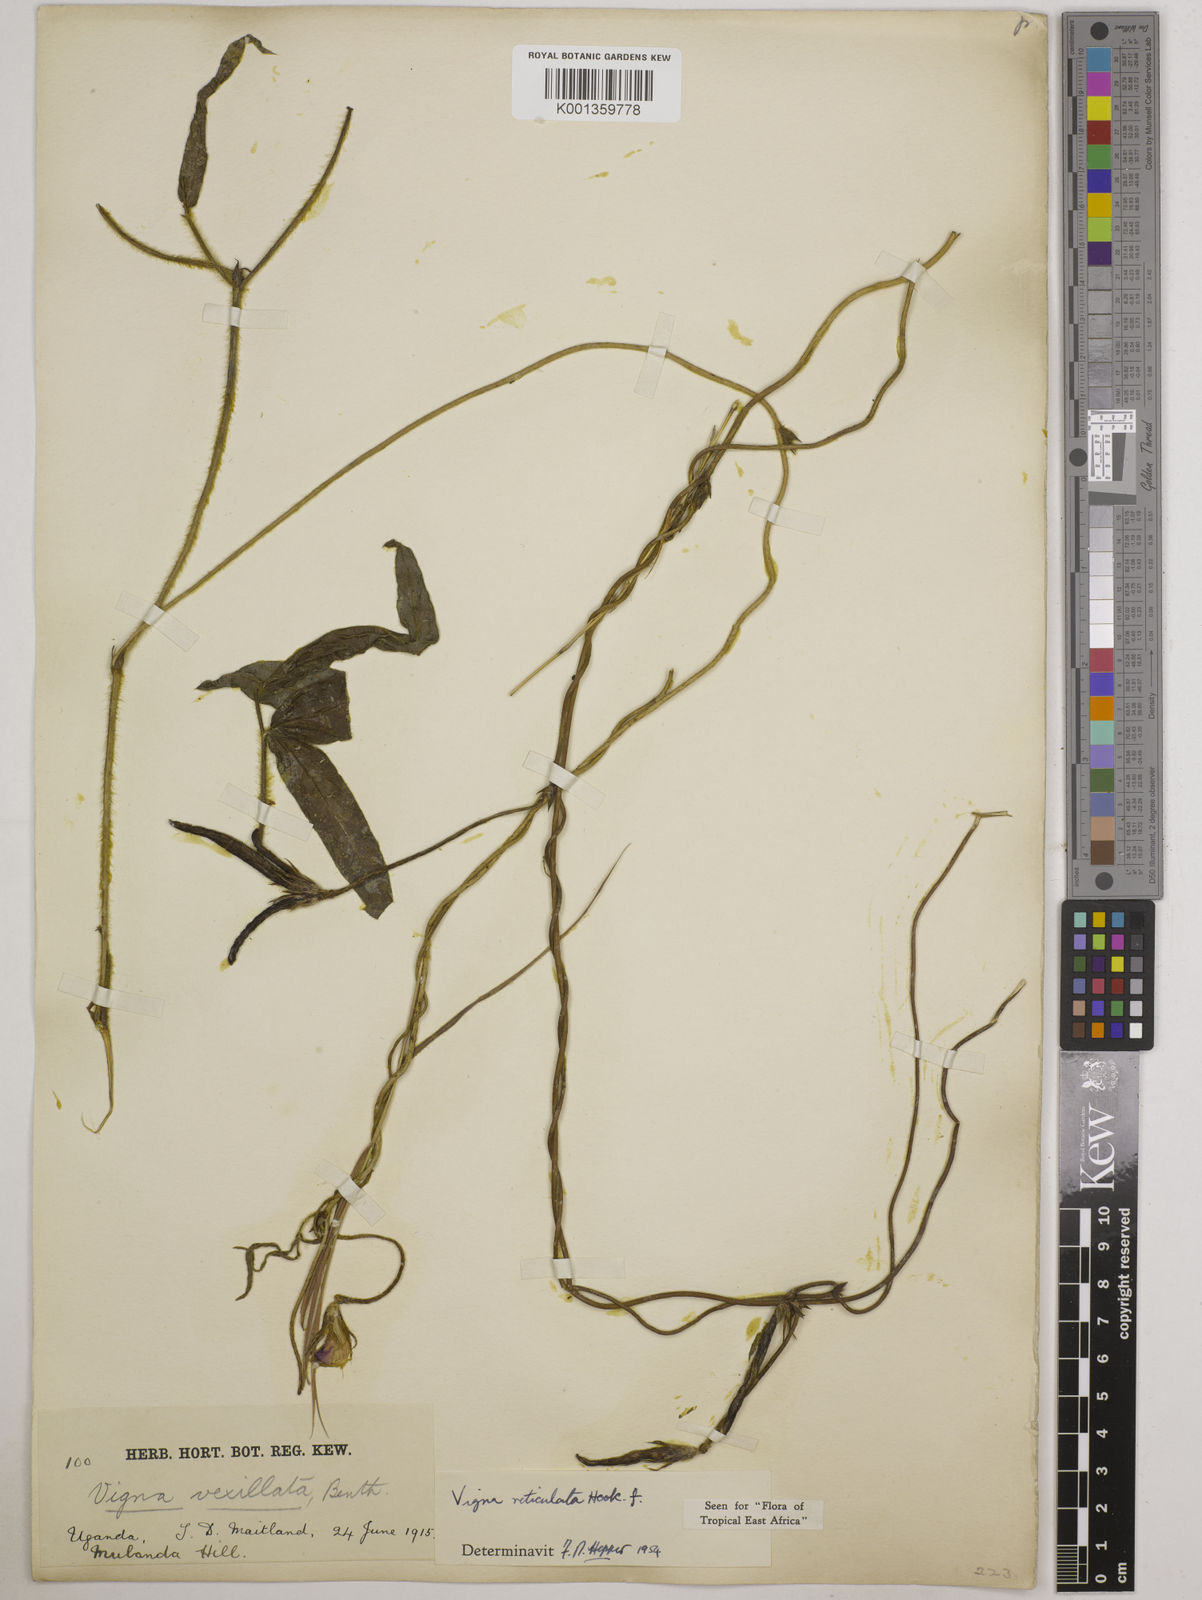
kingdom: Plantae
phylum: Tracheophyta
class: Magnoliopsida
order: Fabales
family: Fabaceae
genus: Vigna
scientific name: Vigna reticulata
